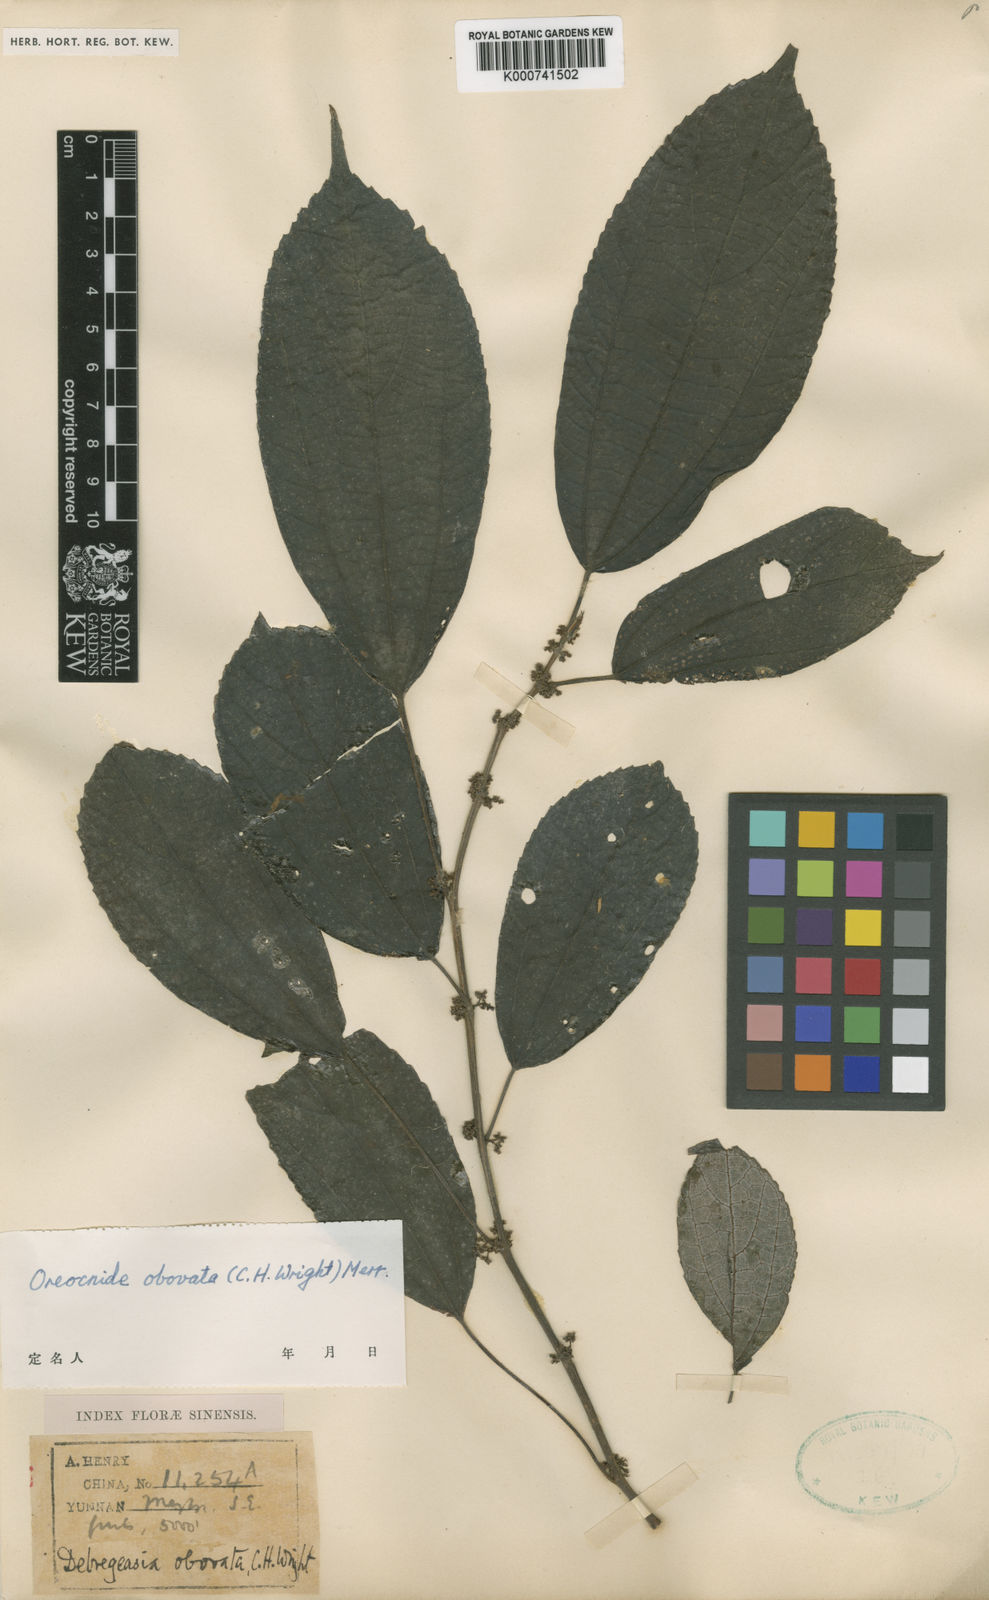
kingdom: Plantae
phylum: Tracheophyta
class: Magnoliopsida
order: Rosales
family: Urticaceae
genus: Oreocnide
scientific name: Oreocnide obovata
